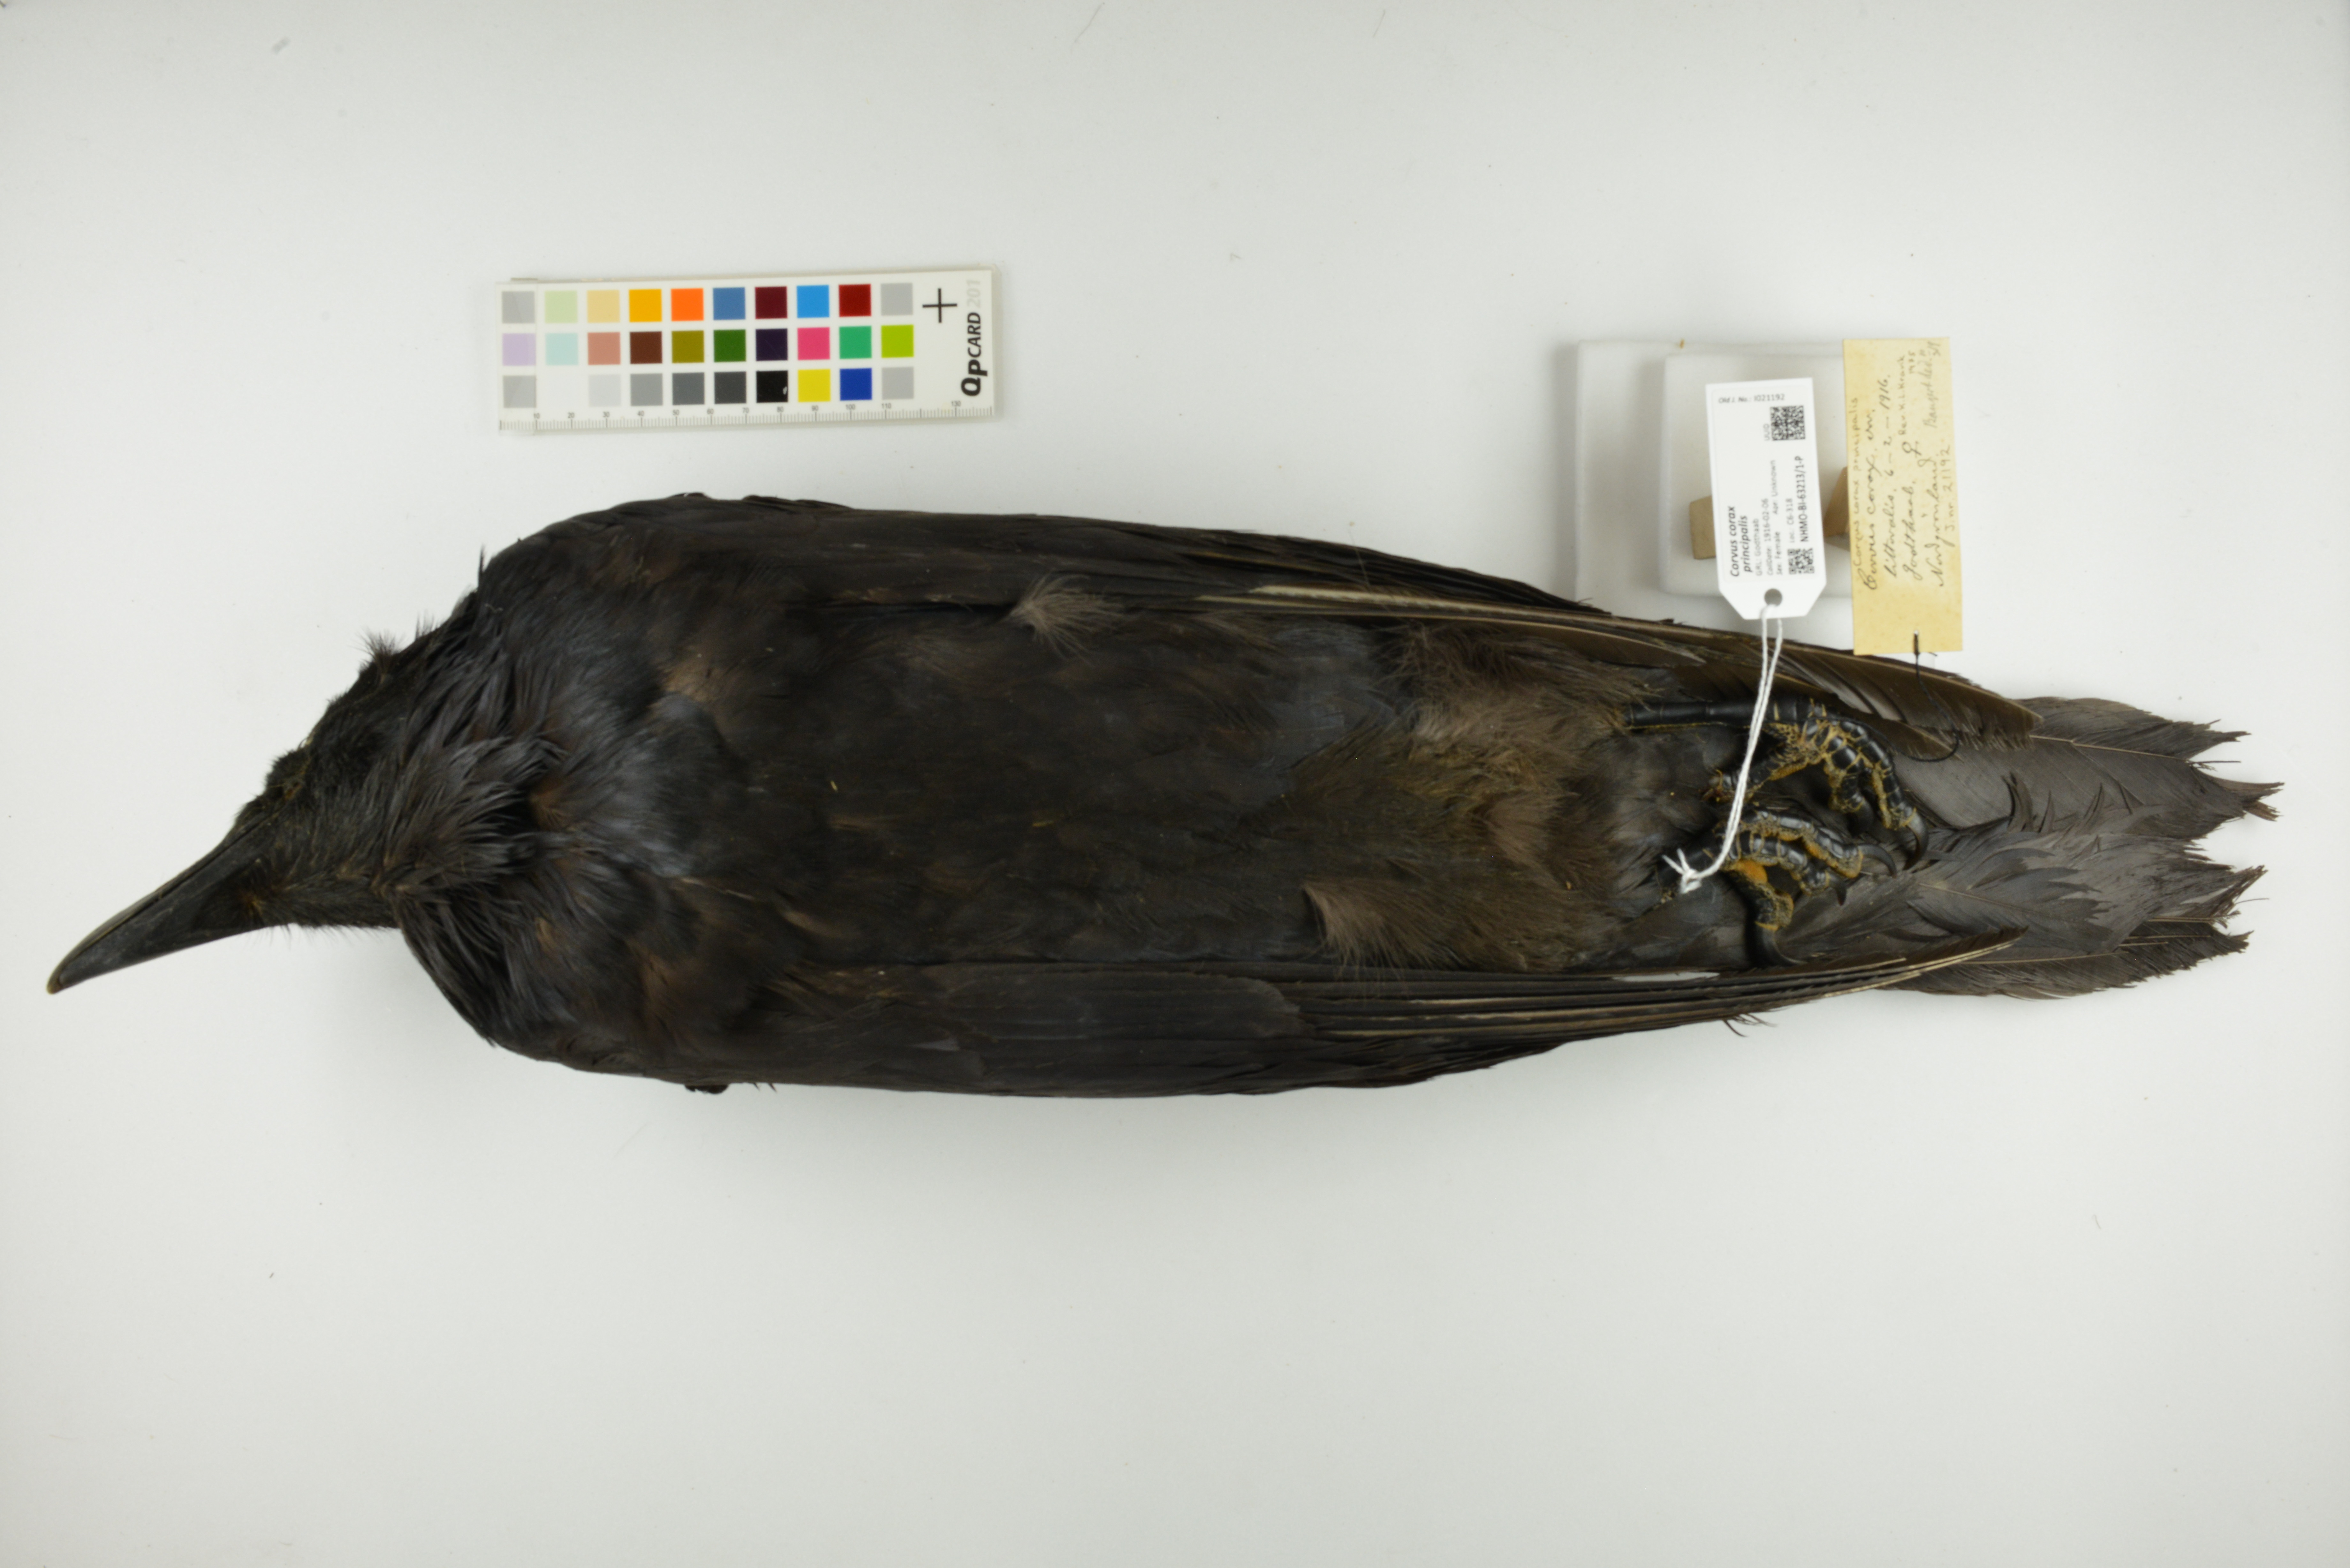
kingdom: Animalia
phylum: Chordata
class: Aves
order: Passeriformes
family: Corvidae
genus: Corvus
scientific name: Corvus corax
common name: Common raven
